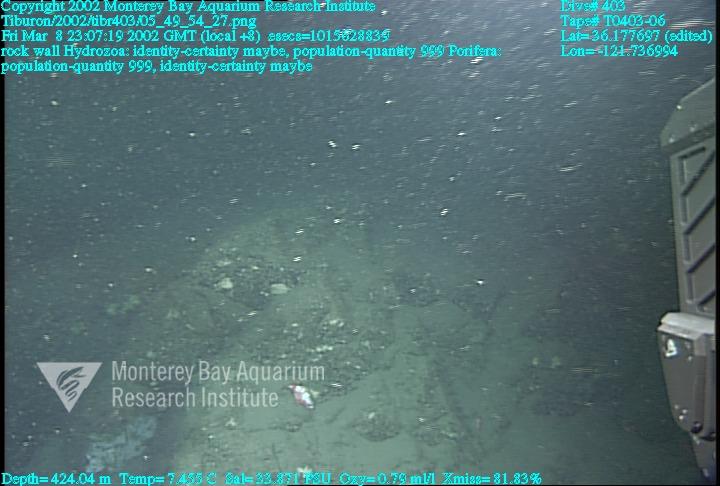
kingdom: Animalia
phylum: Porifera
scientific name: Porifera
